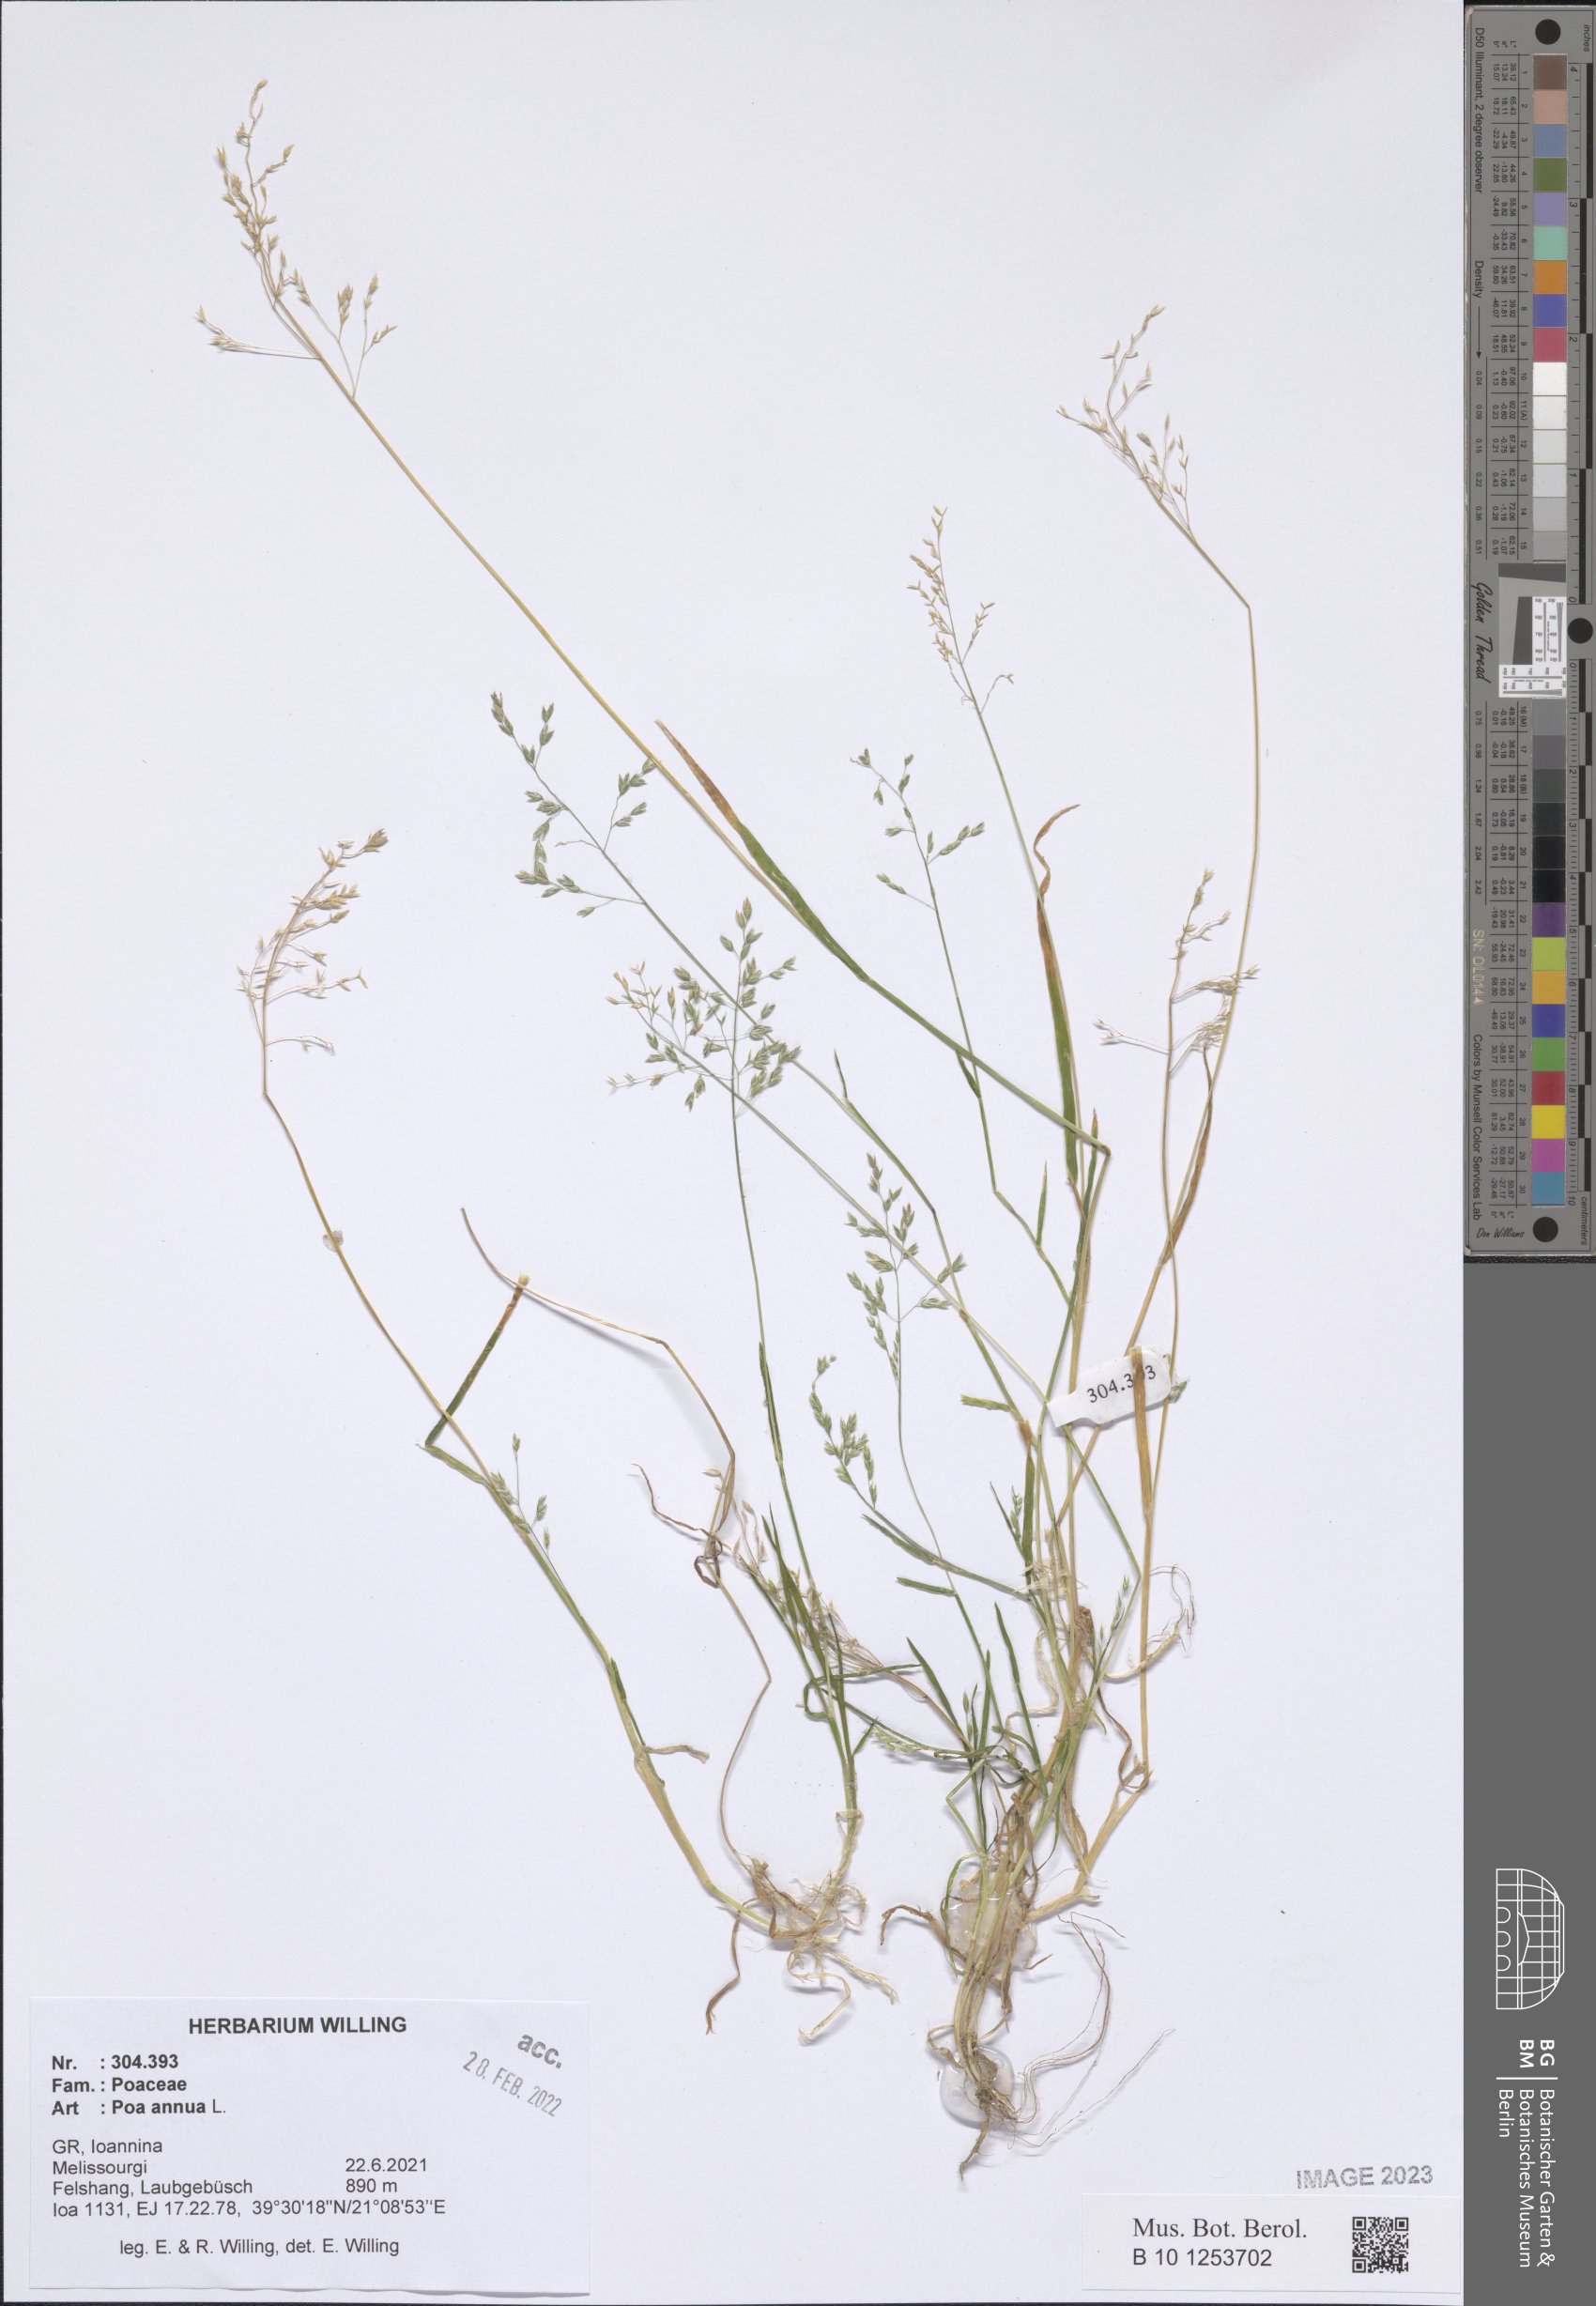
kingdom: Plantae
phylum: Tracheophyta
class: Liliopsida
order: Poales
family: Poaceae
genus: Poa
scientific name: Poa annua
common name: Annual bluegrass
